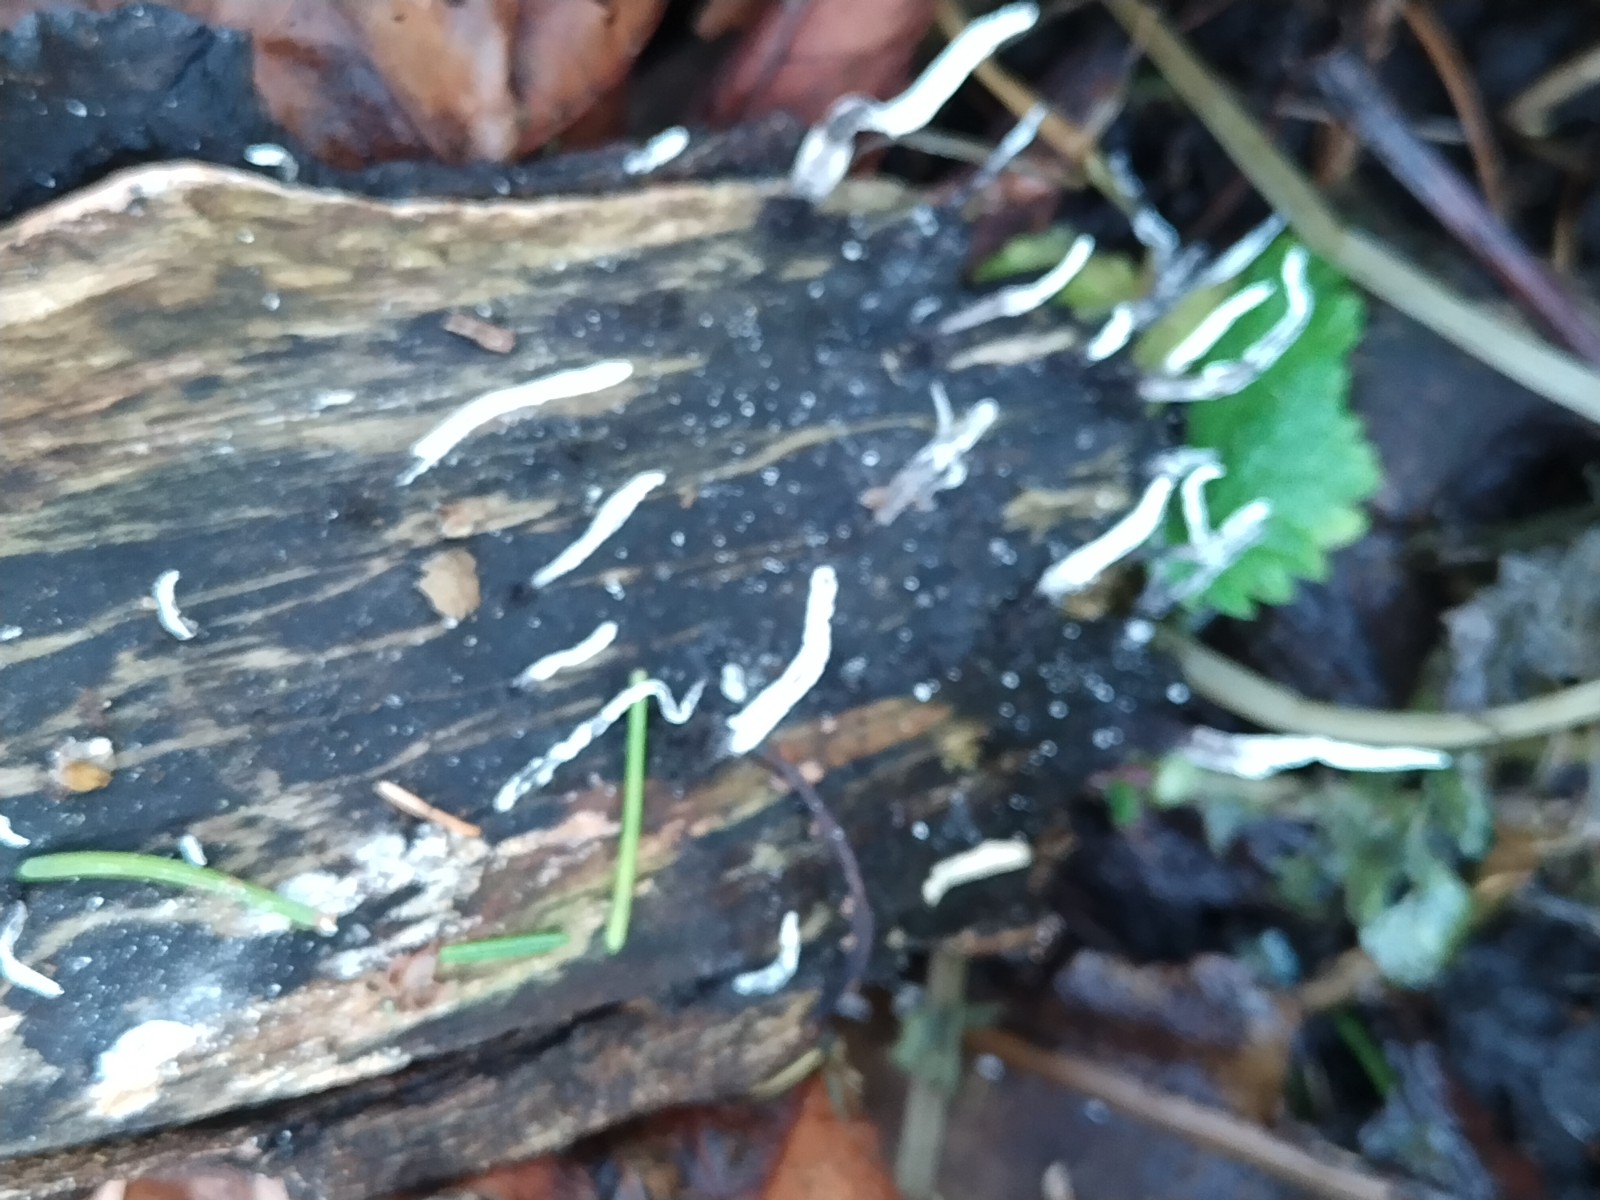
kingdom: Fungi
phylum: Ascomycota
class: Sordariomycetes
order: Xylariales
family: Xylariaceae
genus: Xylaria
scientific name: Xylaria hypoxylon
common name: grenet stødsvamp
